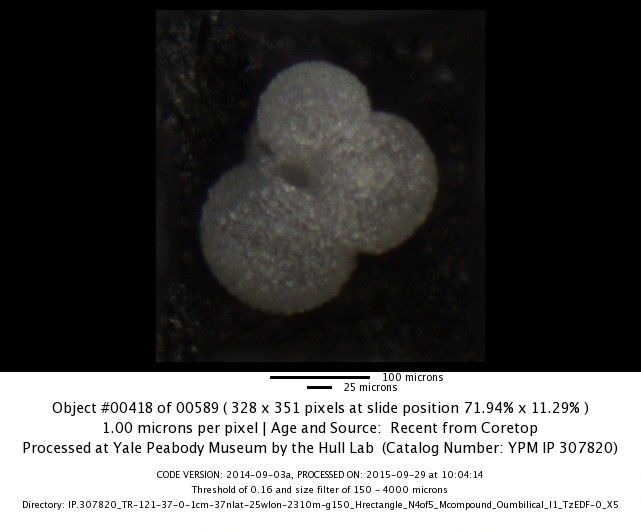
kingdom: Chromista
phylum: Foraminifera
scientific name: Foraminifera
